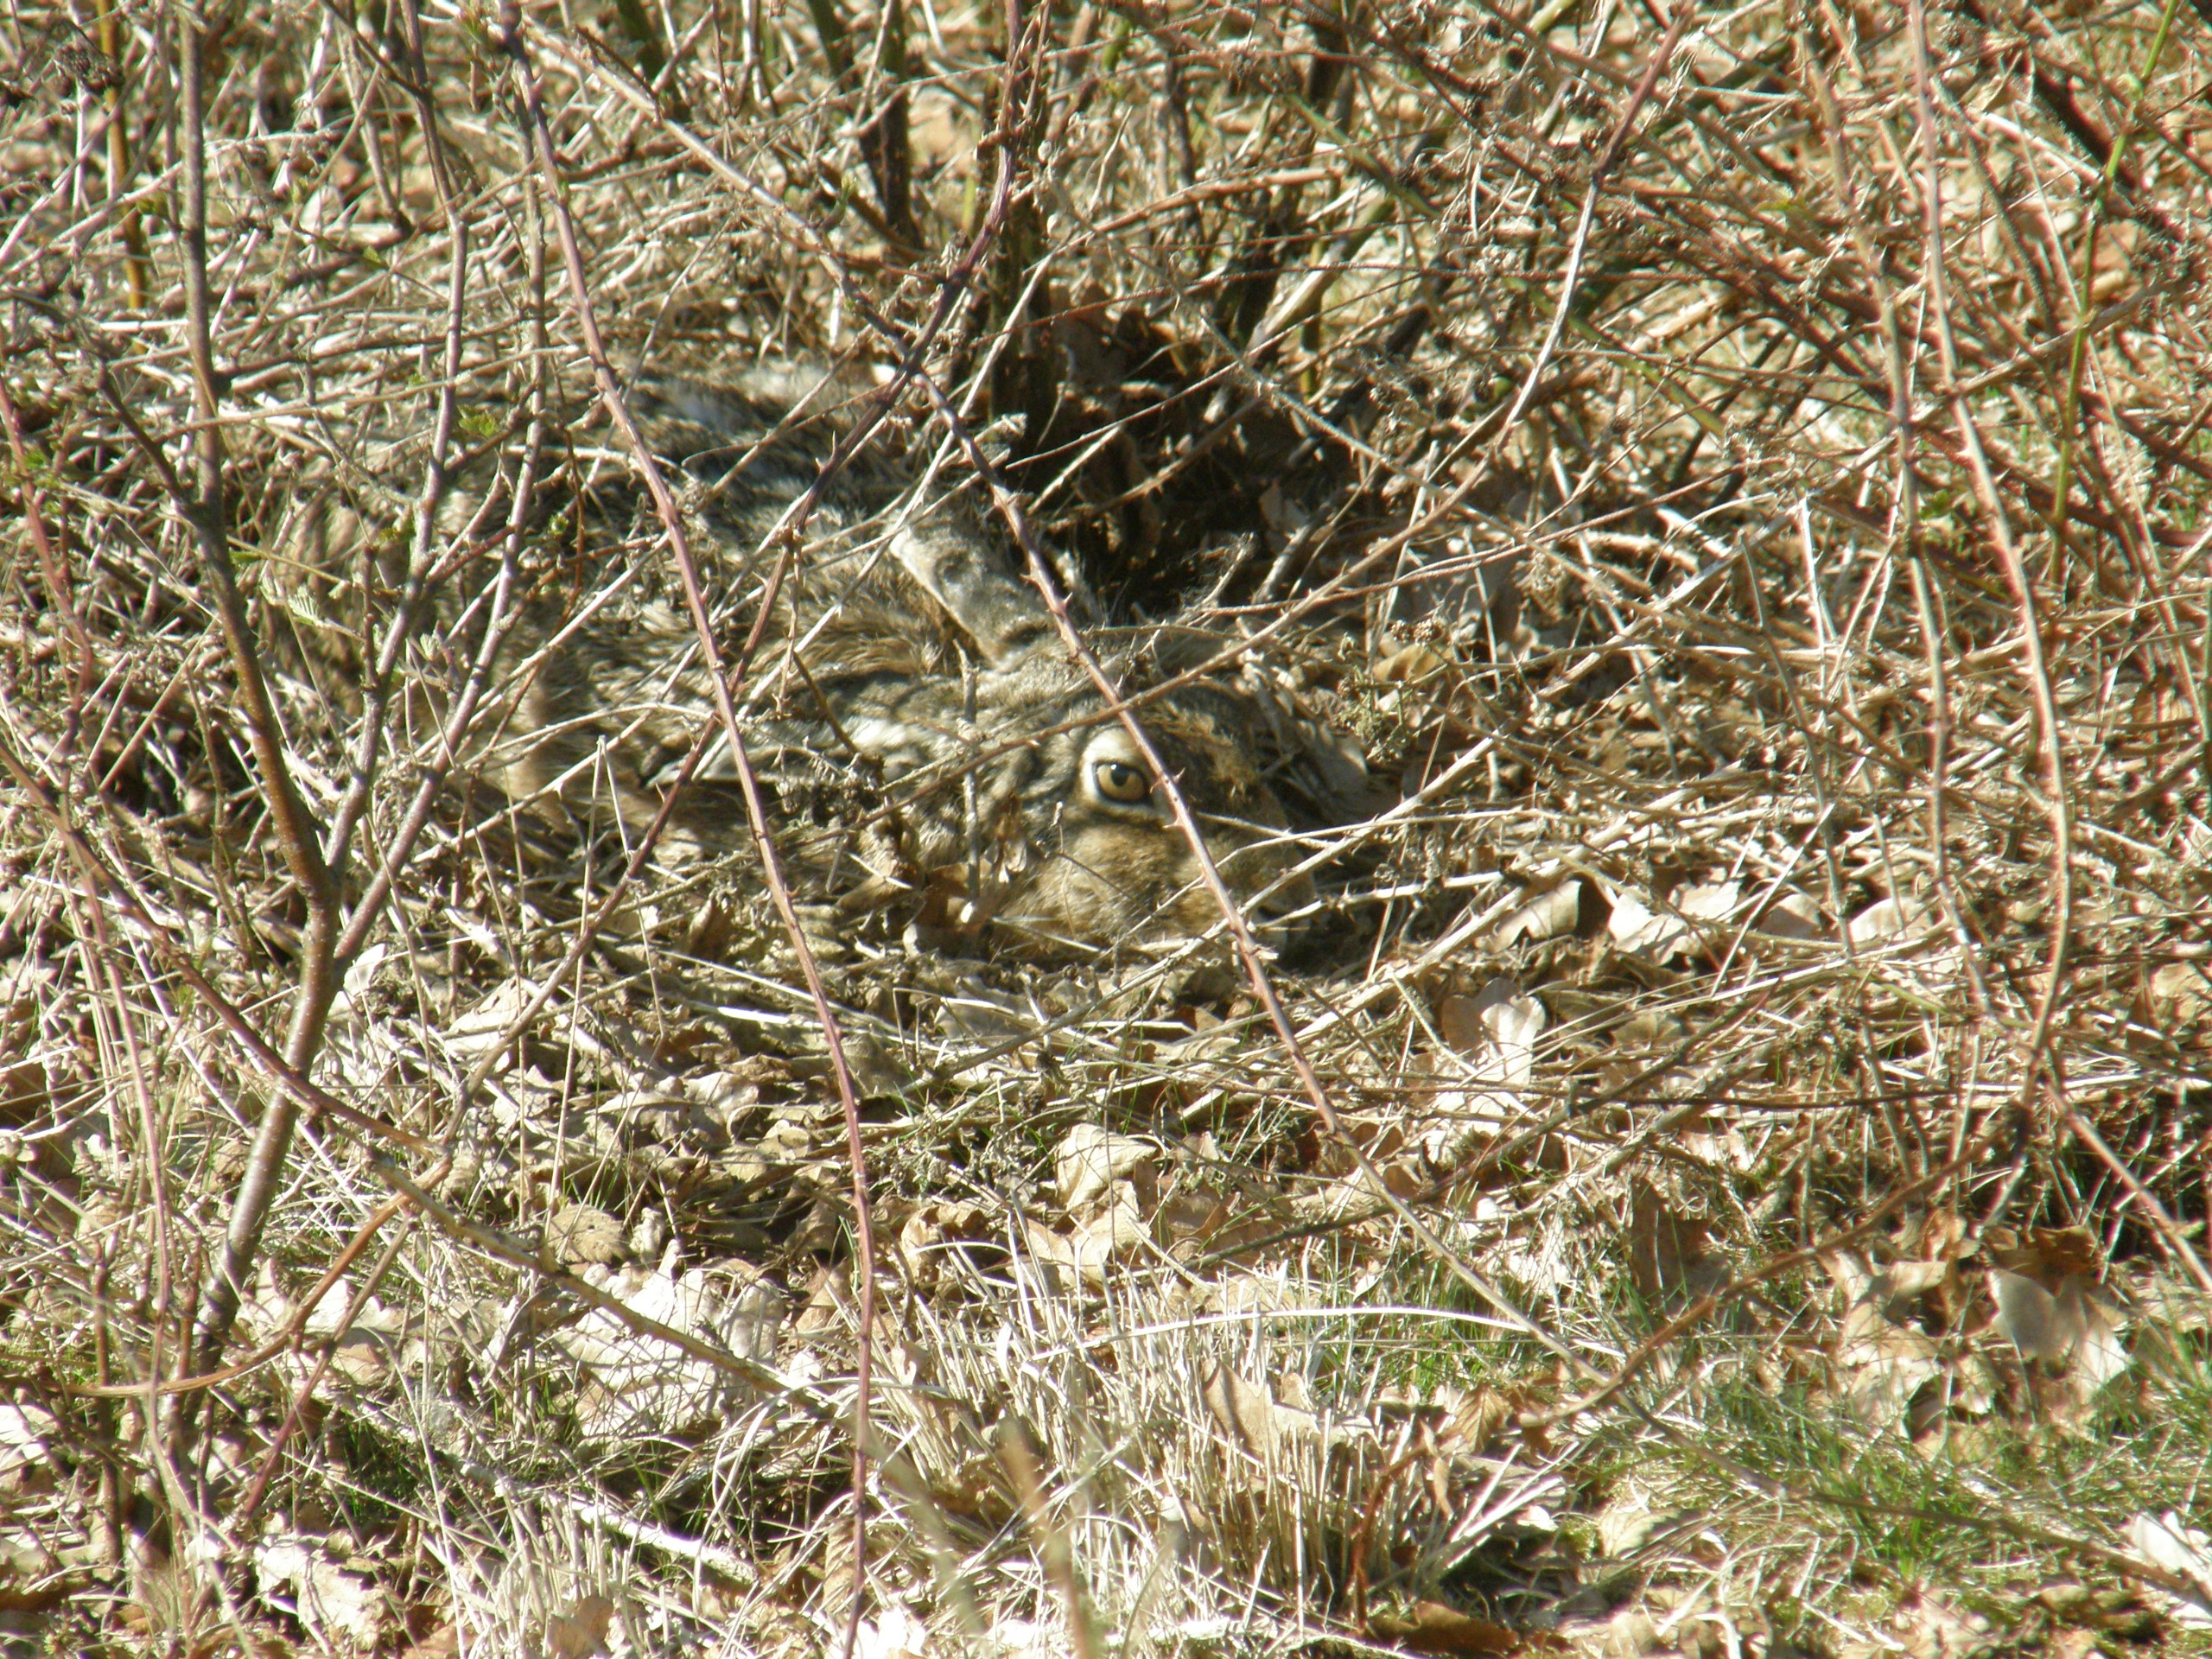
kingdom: Animalia
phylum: Chordata
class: Mammalia
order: Lagomorpha
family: Leporidae
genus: Lepus
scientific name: Lepus europaeus
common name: Hare
